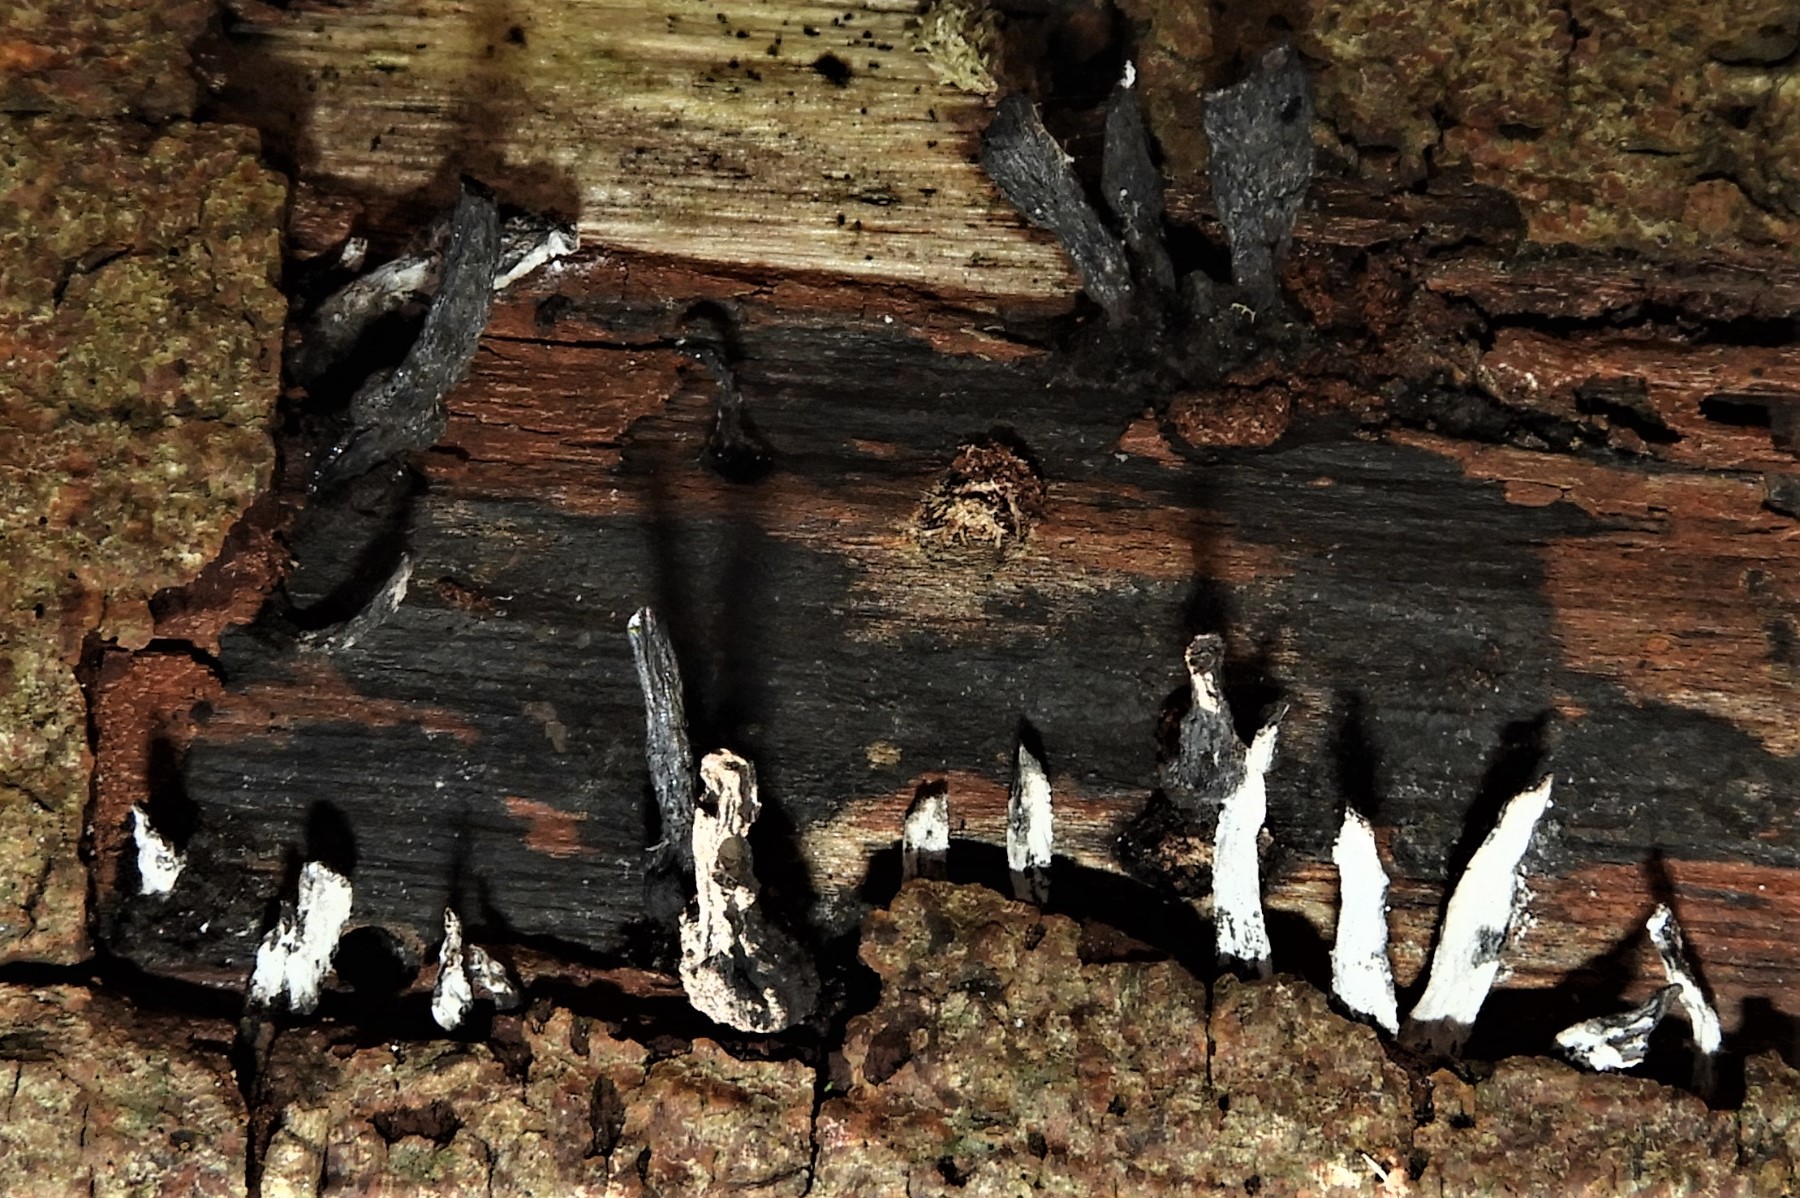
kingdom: Fungi
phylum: Ascomycota
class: Sordariomycetes
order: Xylariales
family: Xylariaceae
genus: Xylaria
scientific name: Xylaria hypoxylon
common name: grenet stødsvamp
